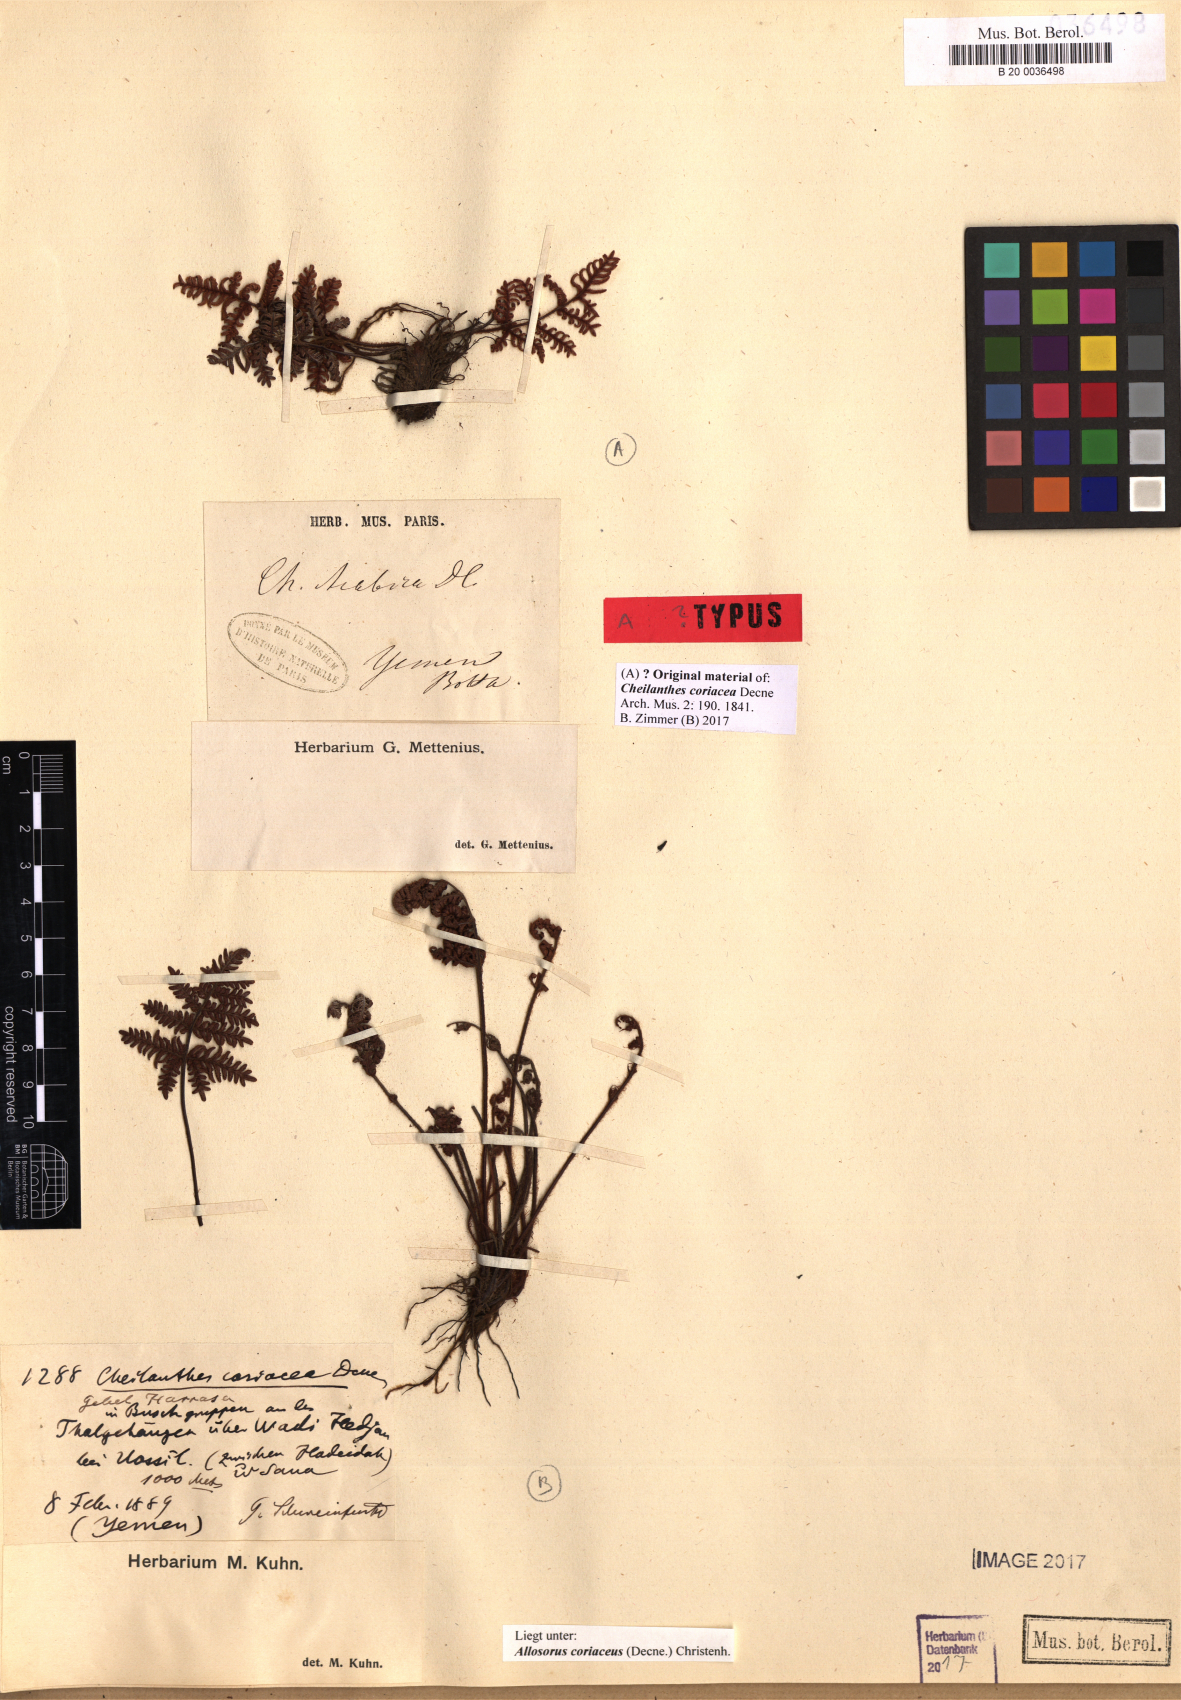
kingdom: Plantae
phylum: Tracheophyta
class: Polypodiopsida
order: Polypodiales
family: Pteridaceae
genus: Oeosporangium
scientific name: Oeosporangium coriaceum
